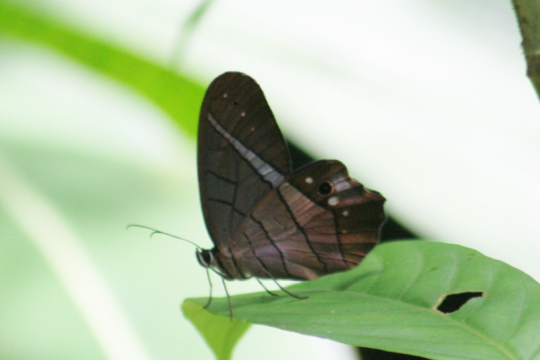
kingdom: Animalia
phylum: Arthropoda
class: Insecta
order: Lepidoptera
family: Nymphalidae
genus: Pierella
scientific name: Pierella helvina
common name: Red-washed Satyr
